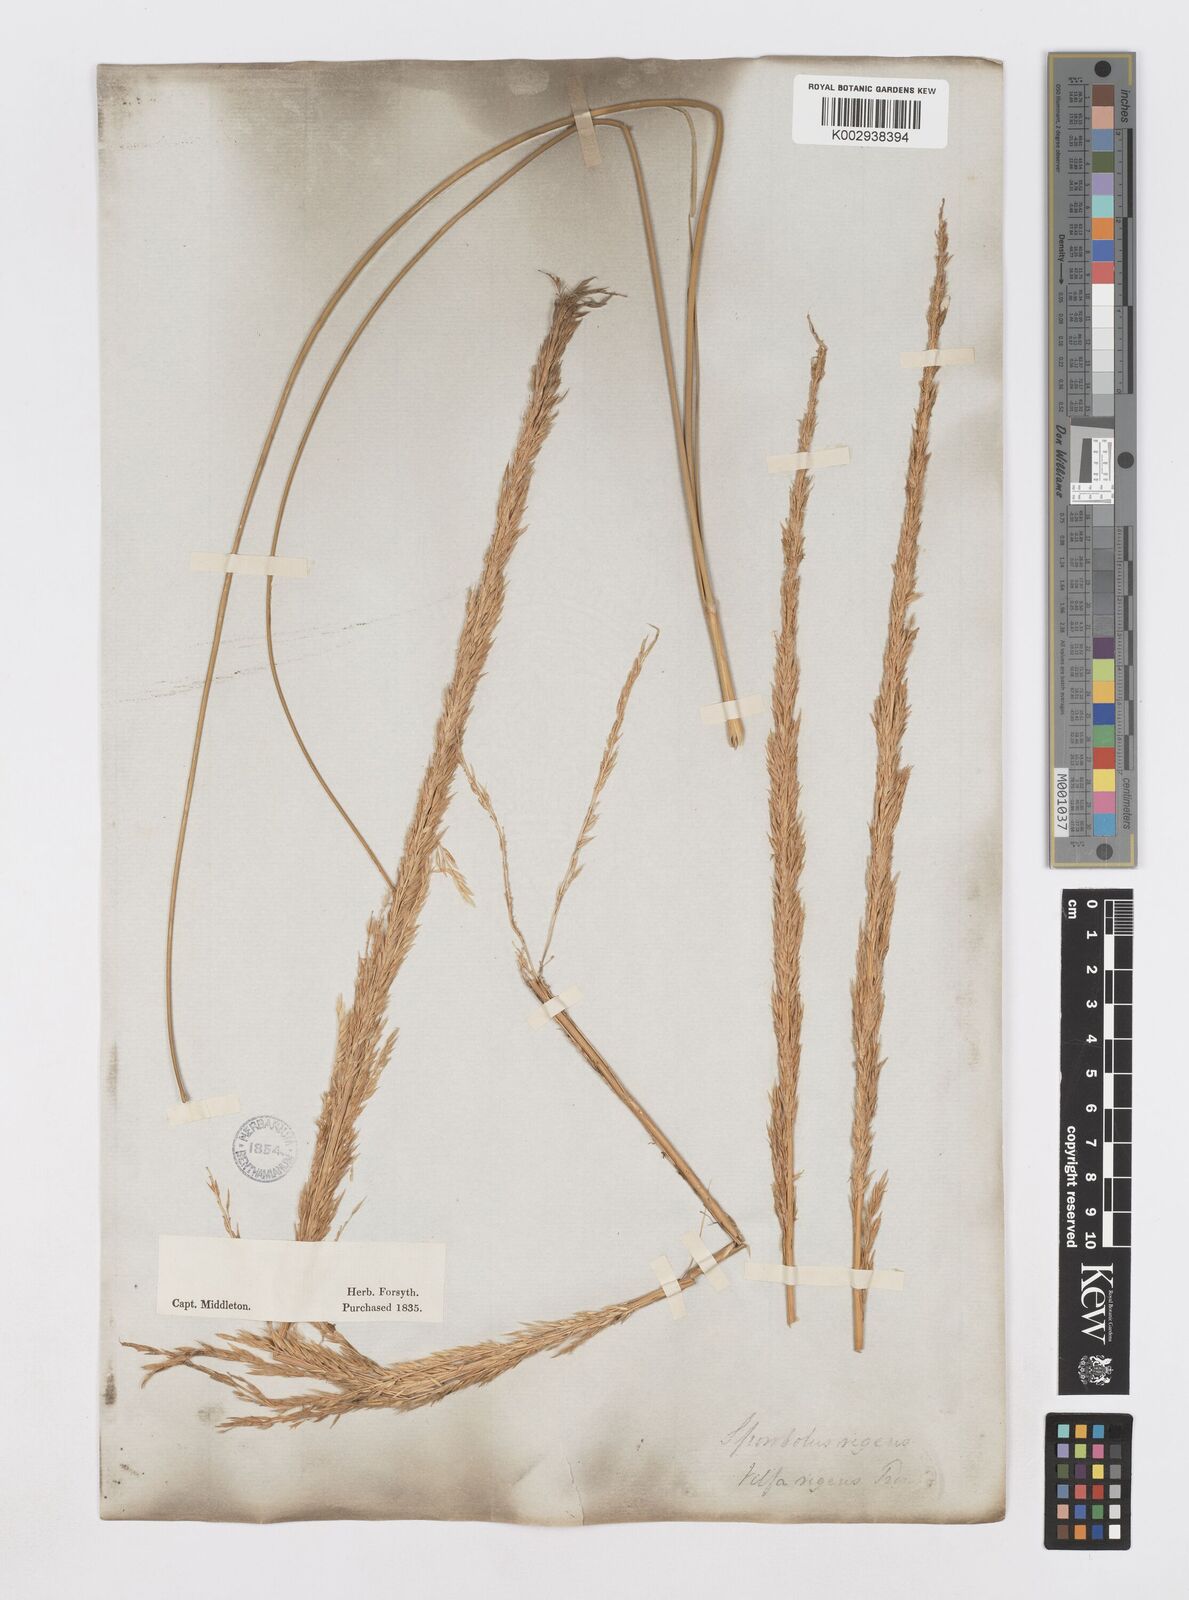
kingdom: Plantae
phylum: Tracheophyta
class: Liliopsida
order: Poales
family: Poaceae
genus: Sporobolus
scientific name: Sporobolus rigens
